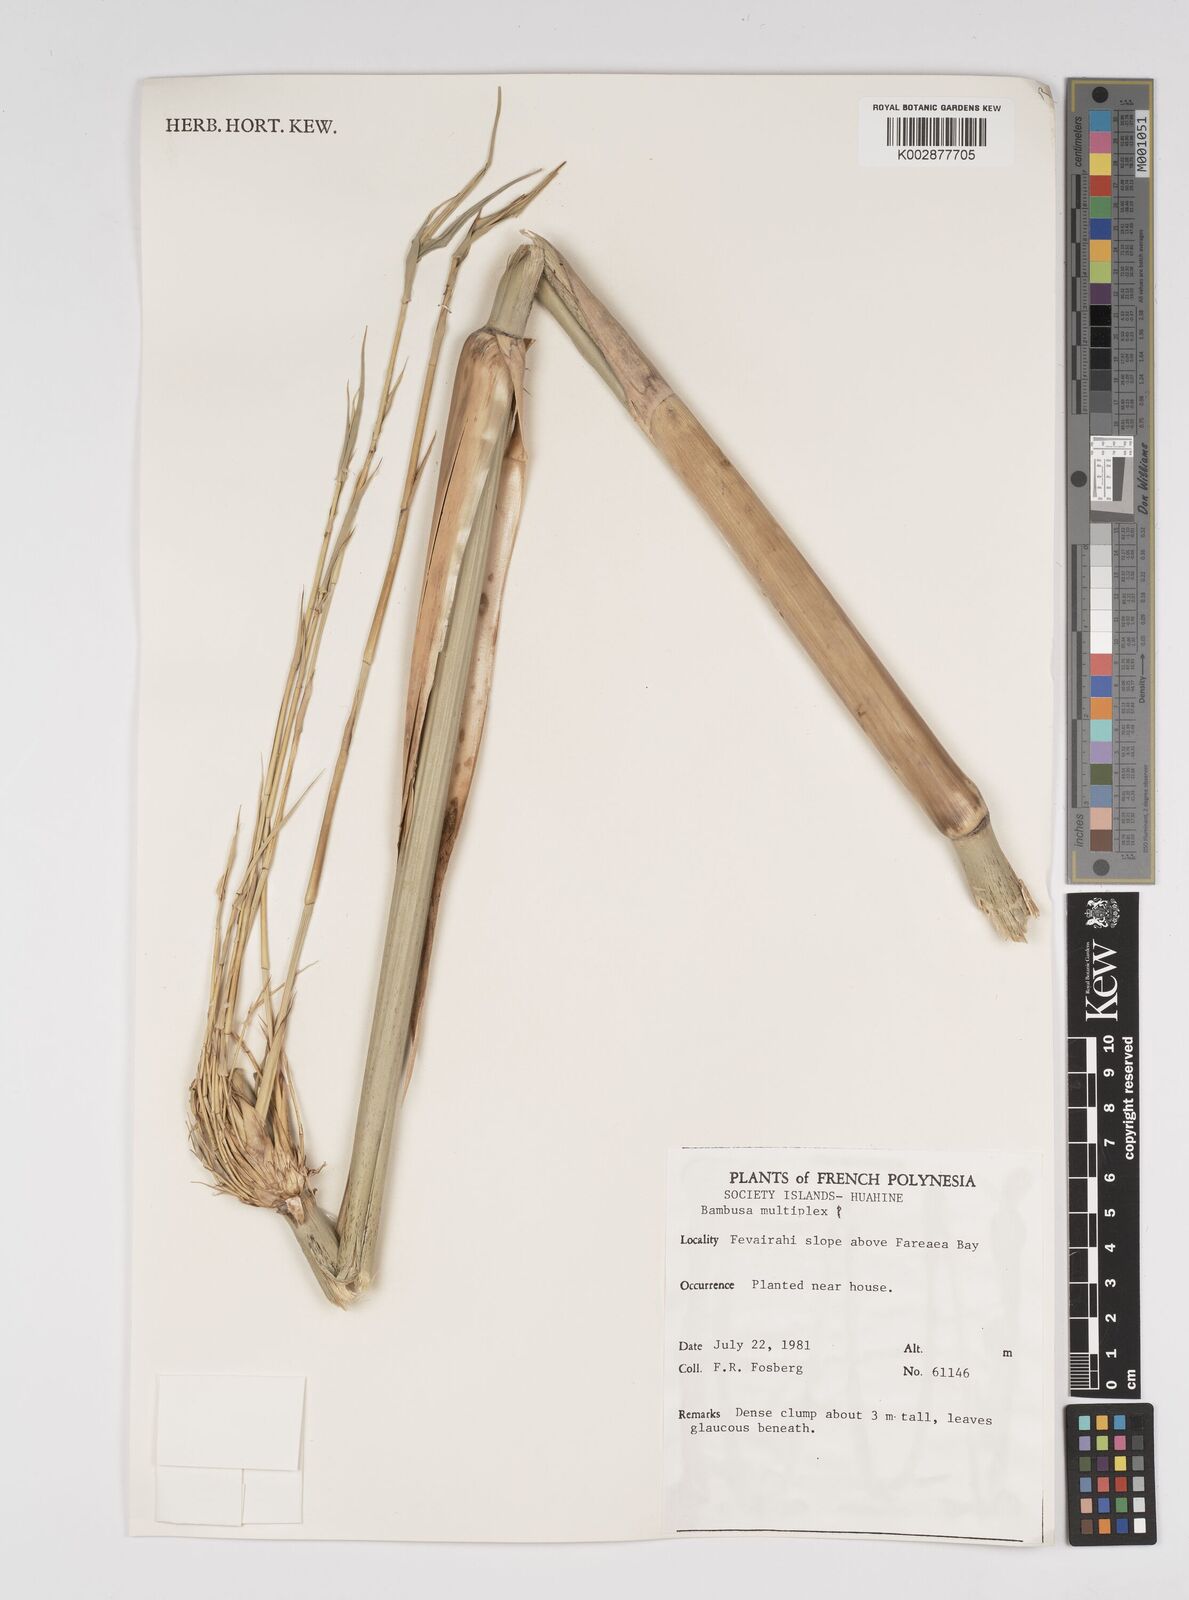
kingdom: Plantae
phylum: Tracheophyta
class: Liliopsida
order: Poales
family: Poaceae
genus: Bambusa
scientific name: Bambusa multiplex
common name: Hedge bamboo
